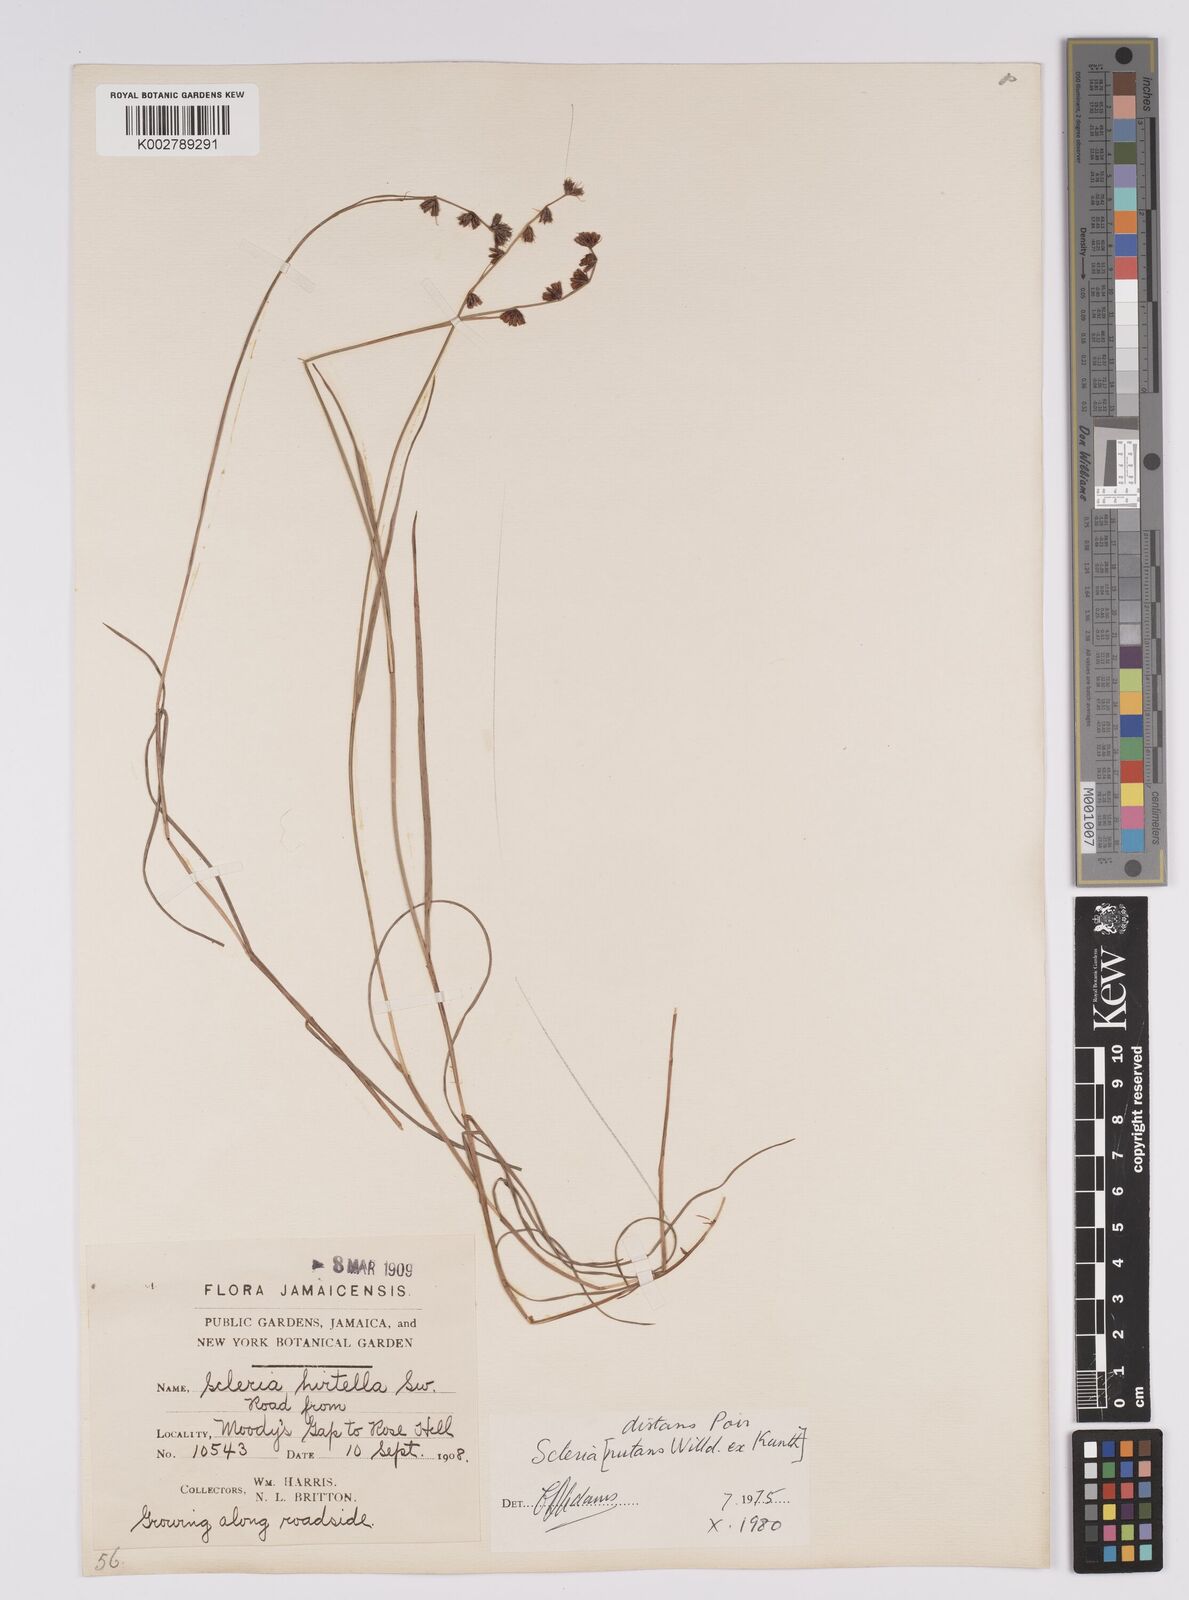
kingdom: Plantae
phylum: Tracheophyta
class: Liliopsida
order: Poales
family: Cyperaceae
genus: Scleria
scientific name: Scleria distans
